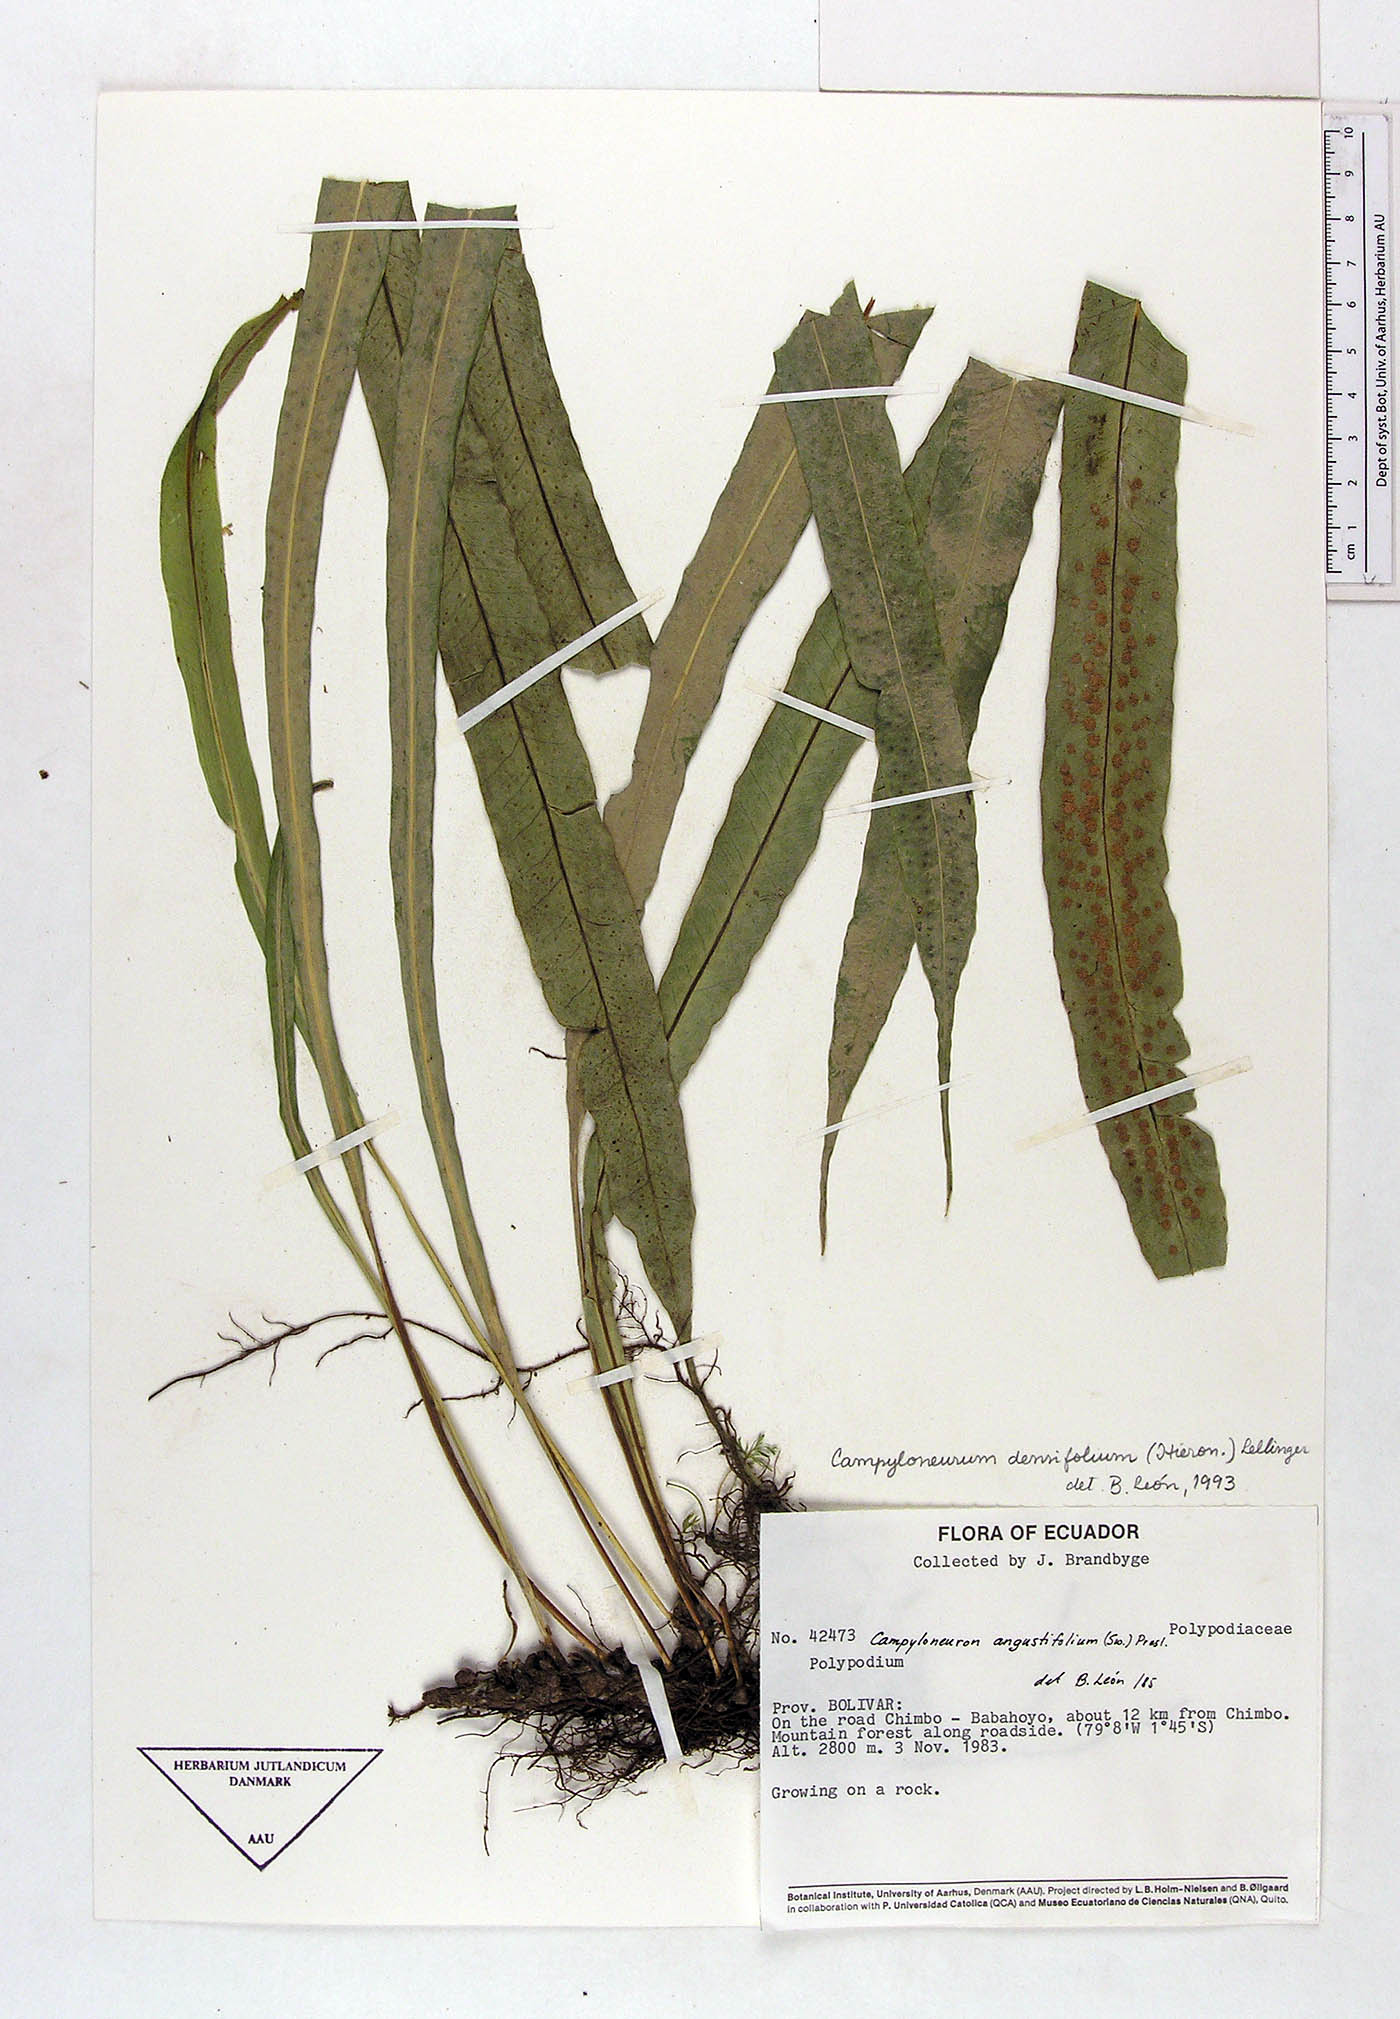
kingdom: Plantae
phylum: Tracheophyta
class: Polypodiopsida
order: Polypodiales
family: Polypodiaceae
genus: Campyloneurum
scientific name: Campyloneurum densifolium
